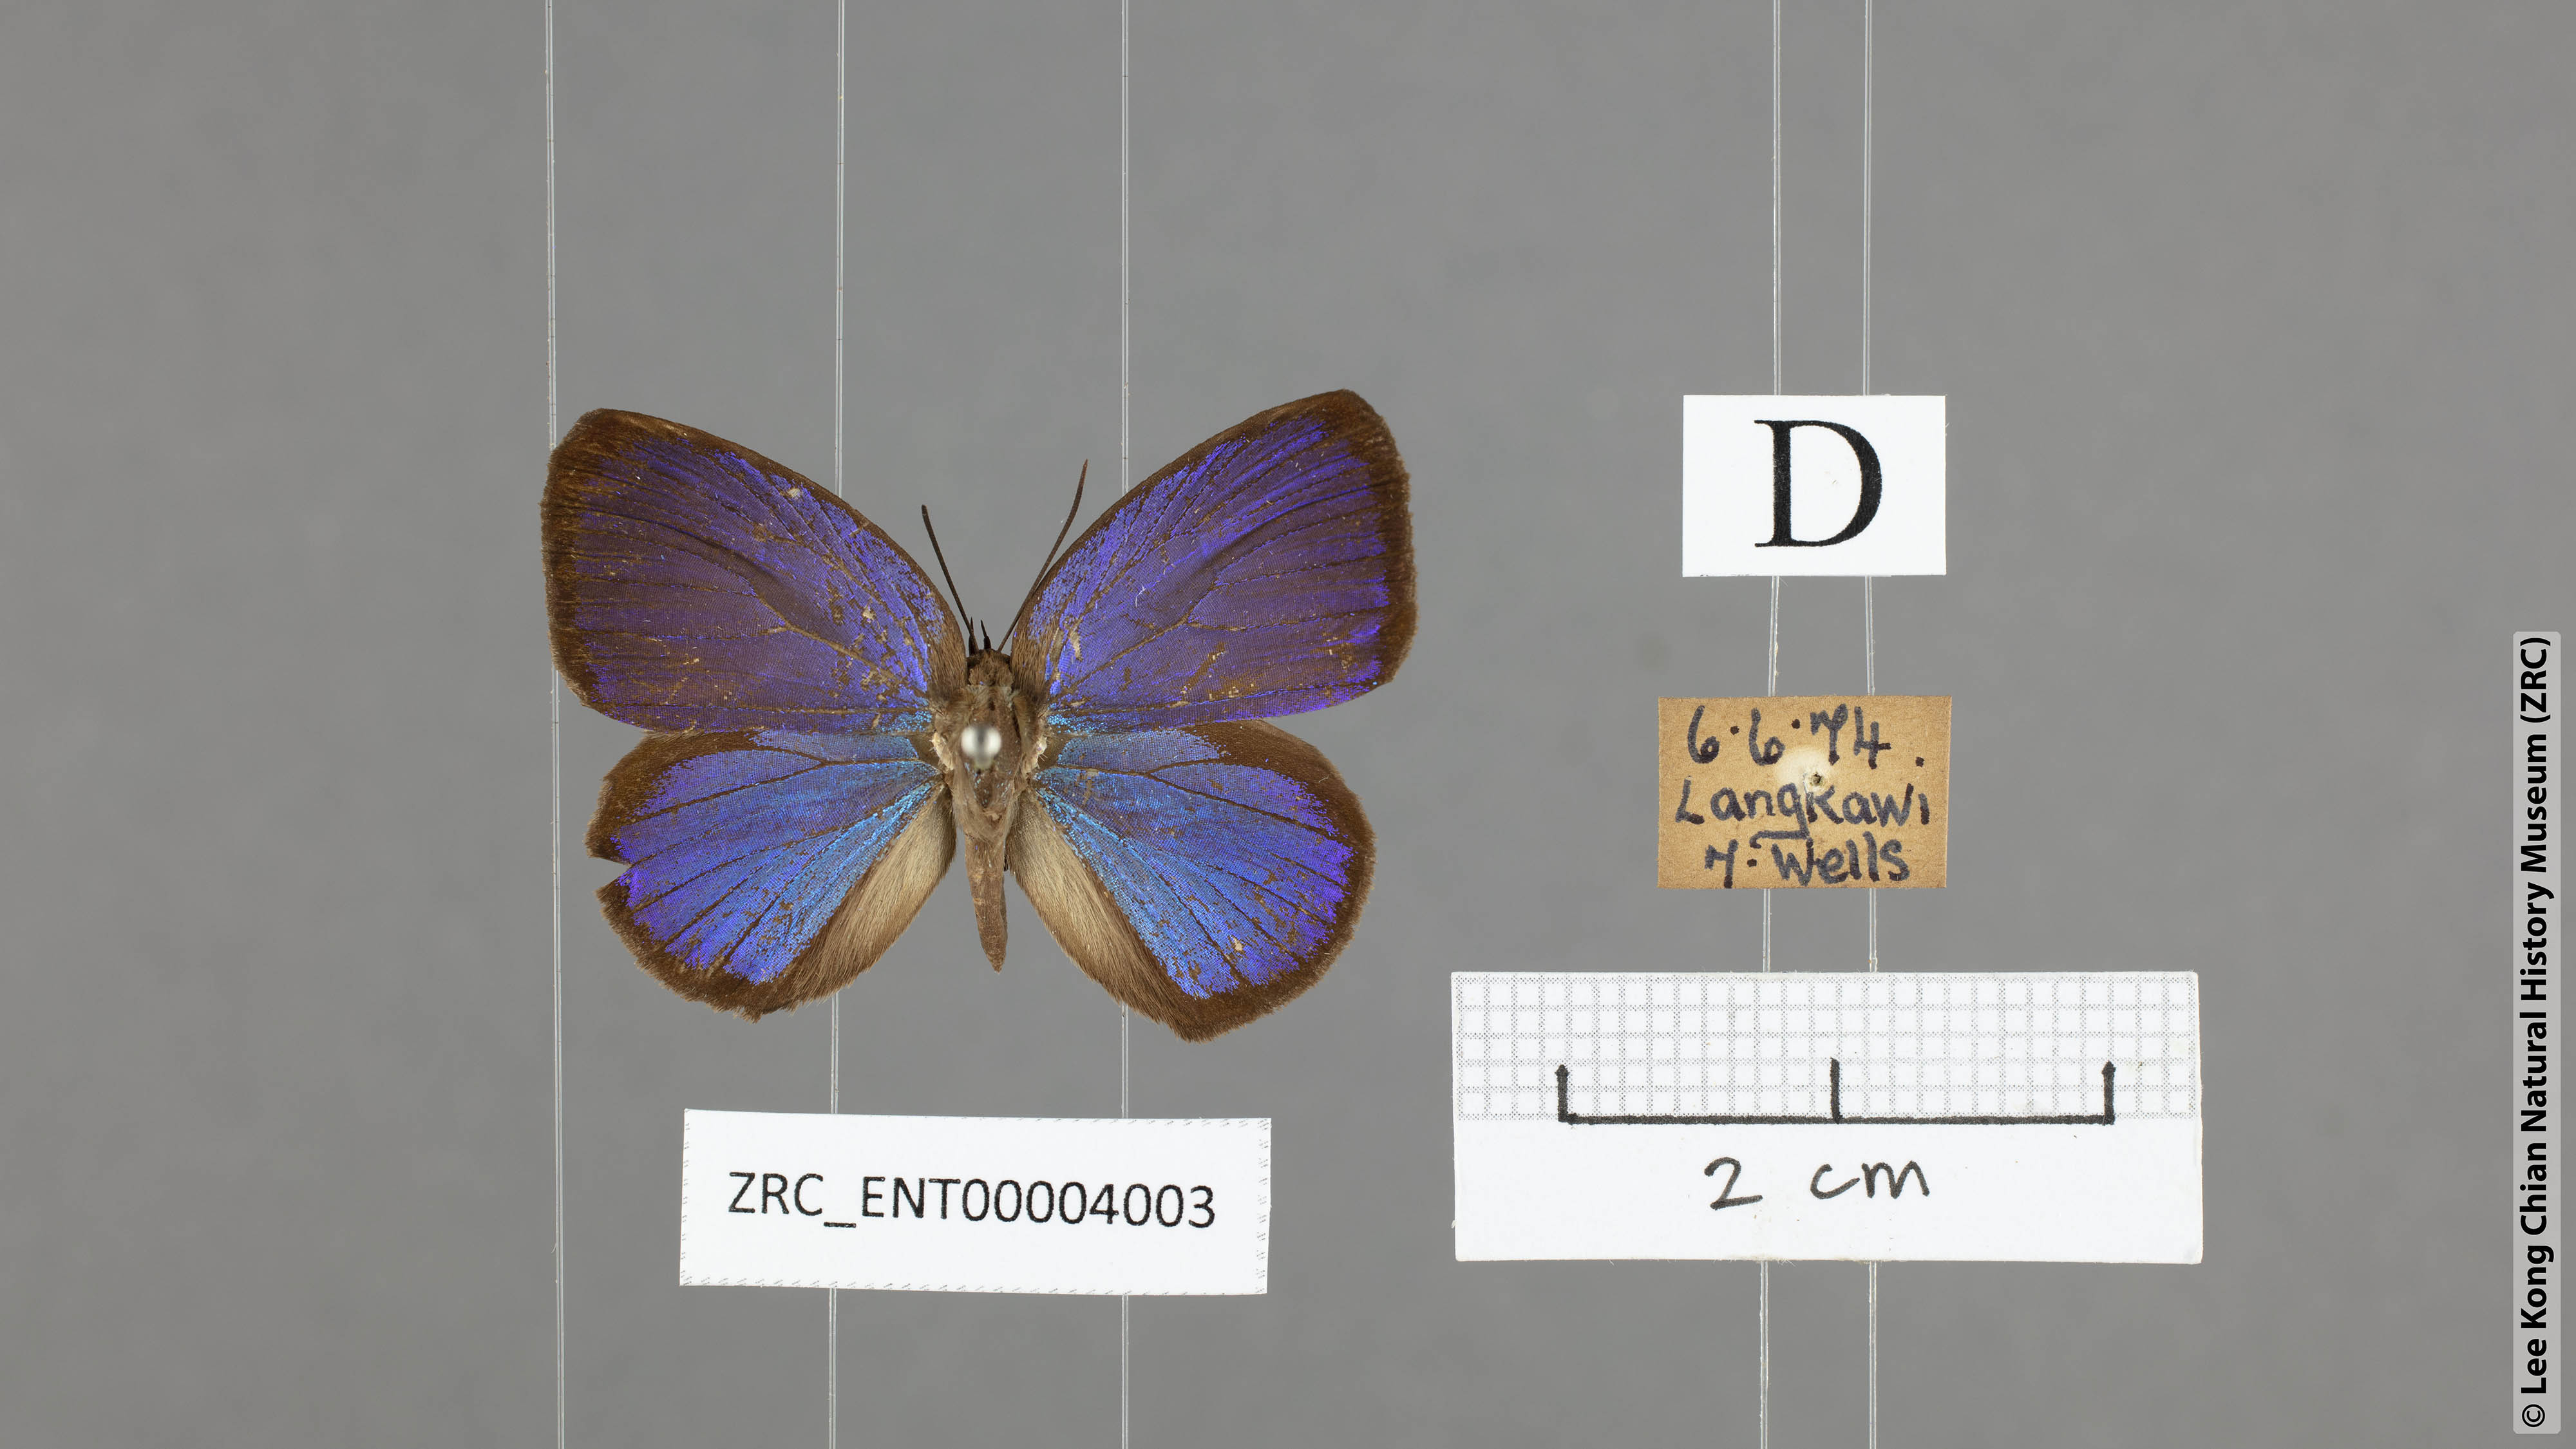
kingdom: Animalia
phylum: Arthropoda
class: Insecta
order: Lepidoptera
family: Lycaenidae
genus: Arhopala
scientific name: Arhopala muta
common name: Mutal oakblue
